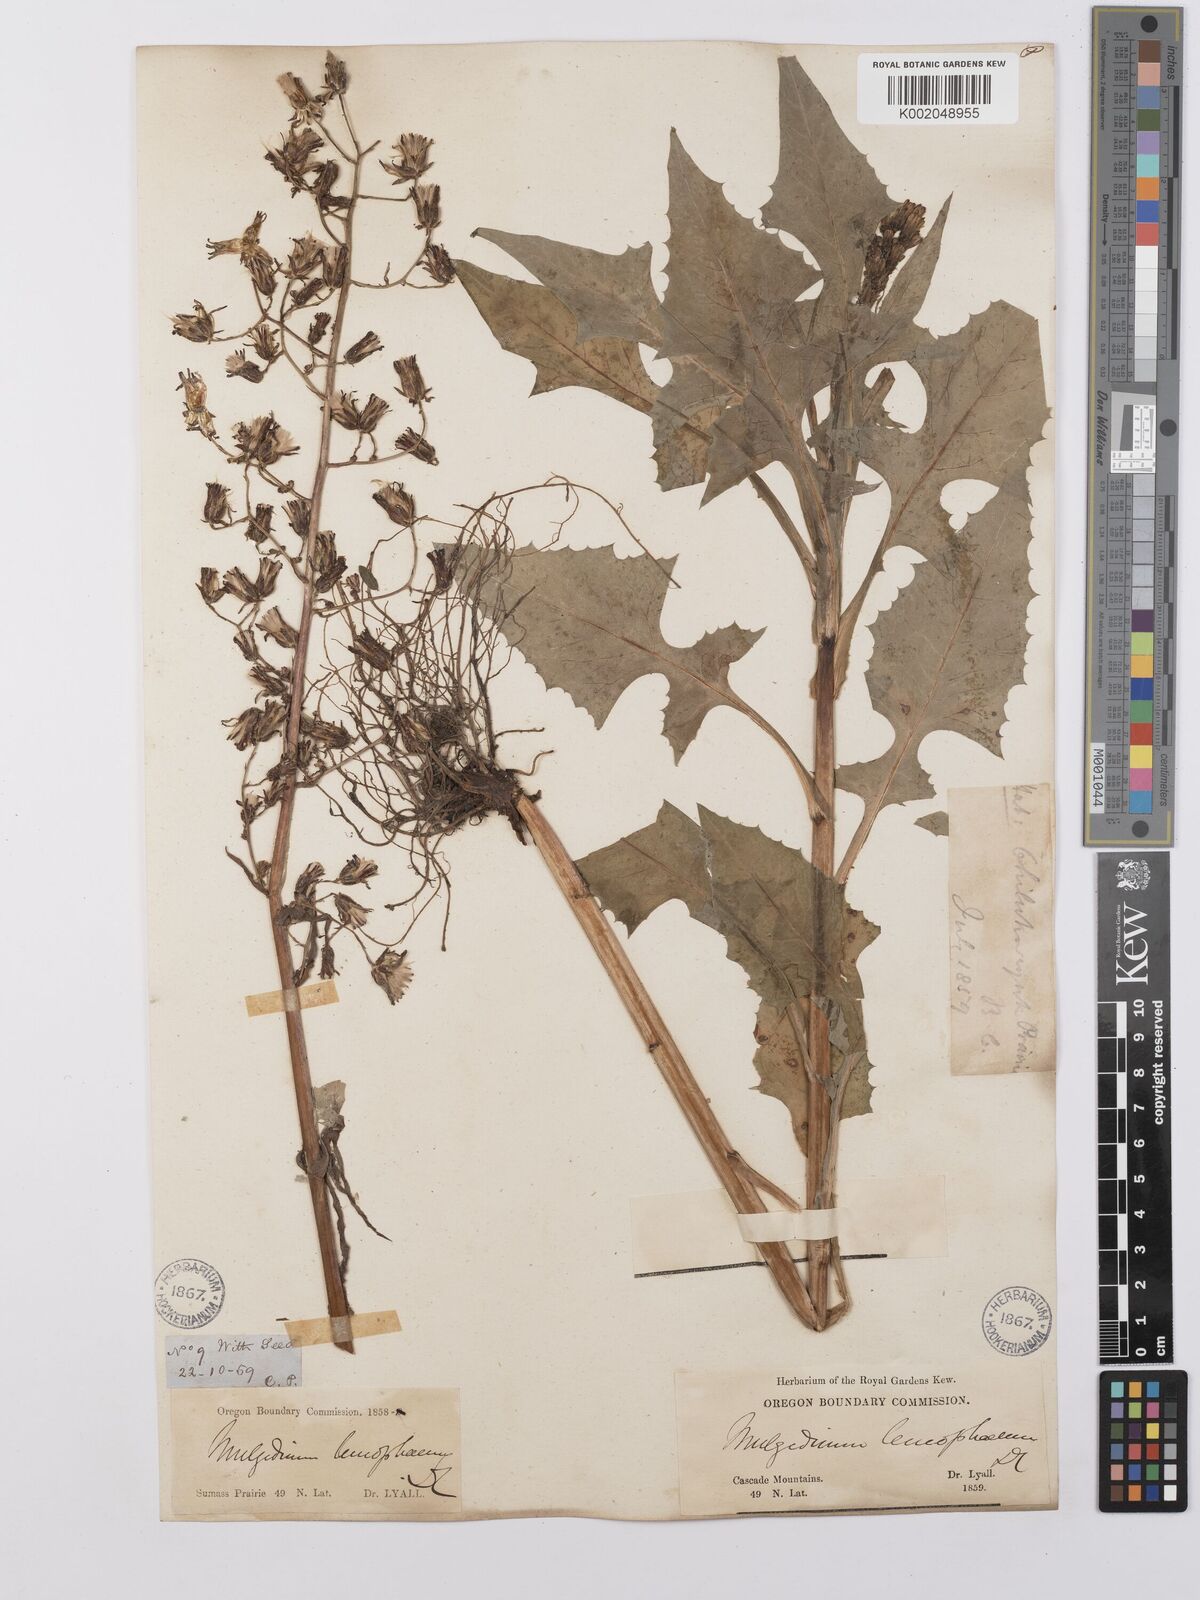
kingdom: Plantae
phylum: Tracheophyta
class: Magnoliopsida
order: Asterales
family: Asteraceae
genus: Cicerbita
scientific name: Cicerbita alpina
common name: Alpine blue-sow-thistle
